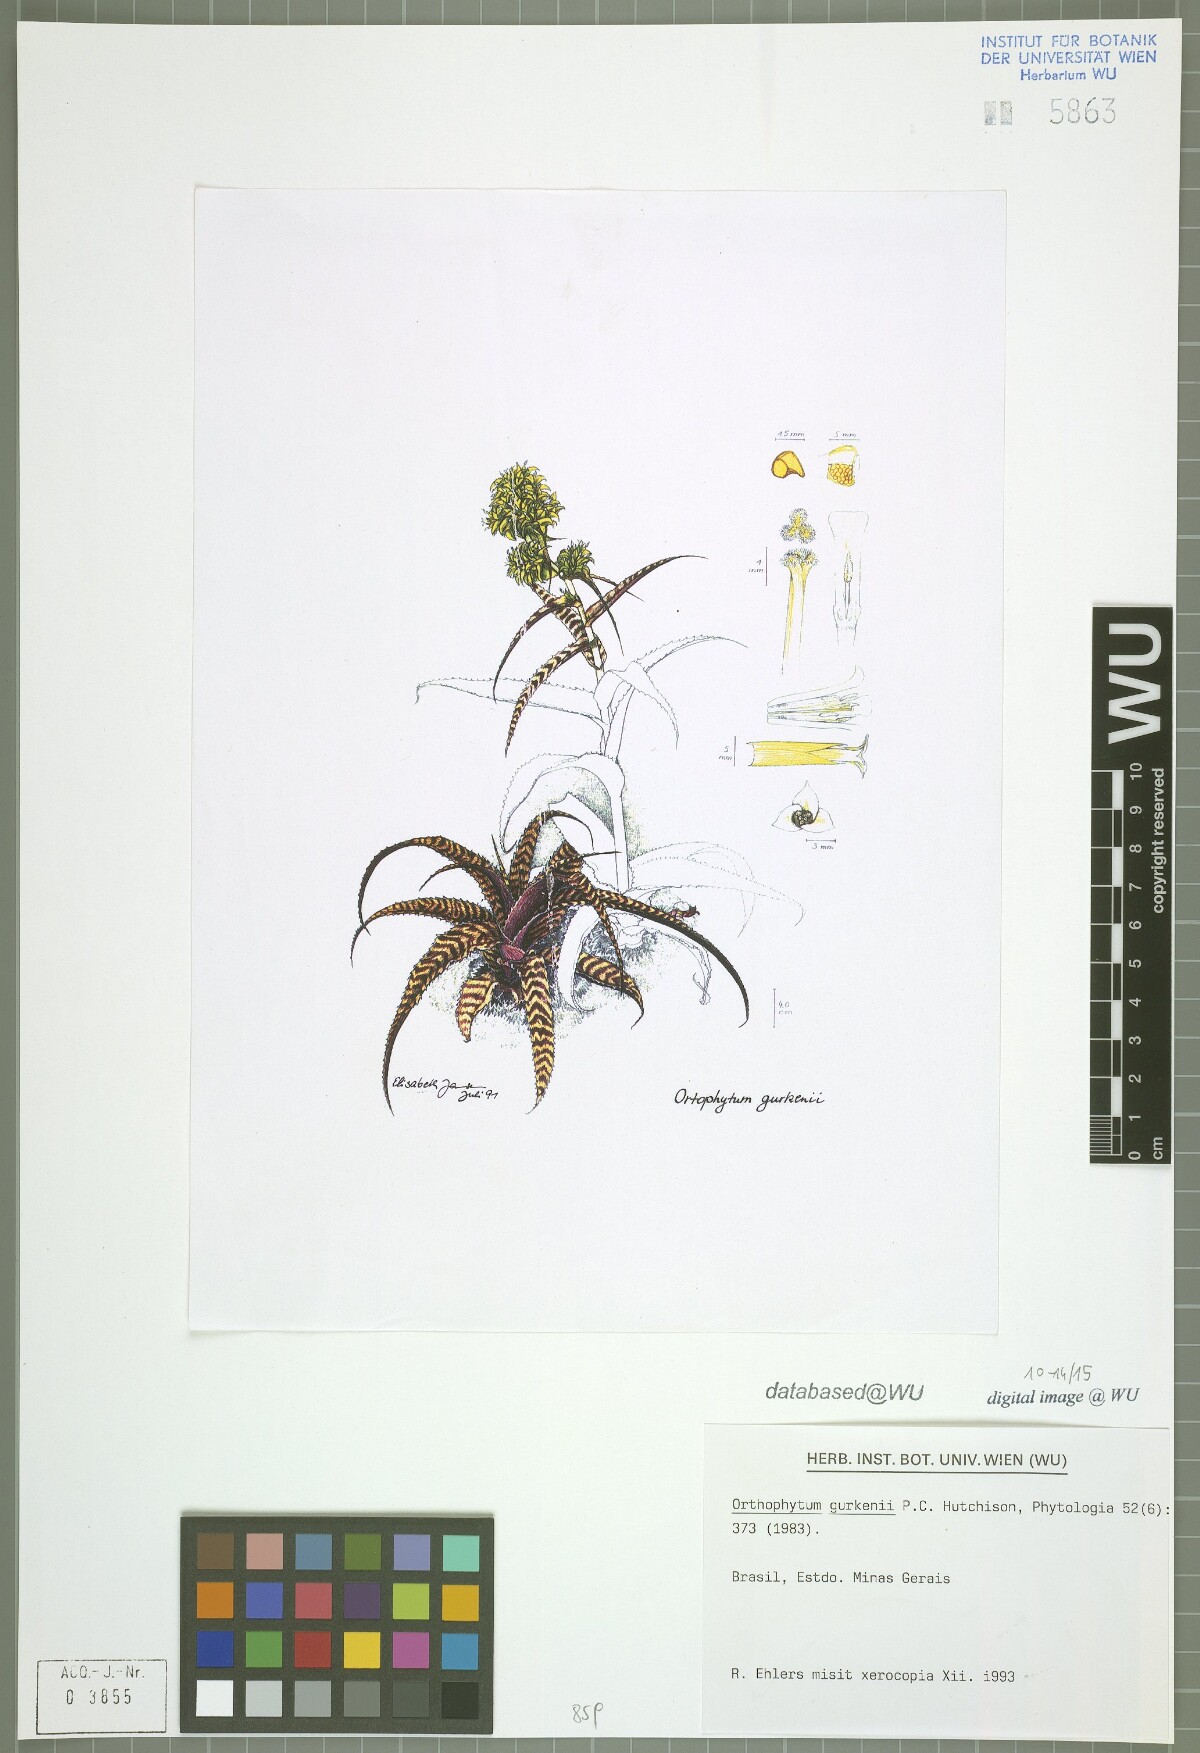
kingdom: Plantae
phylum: Tracheophyta
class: Liliopsida
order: Poales
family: Bromeliaceae
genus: Orthophytum
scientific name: Orthophytum gurkenii
